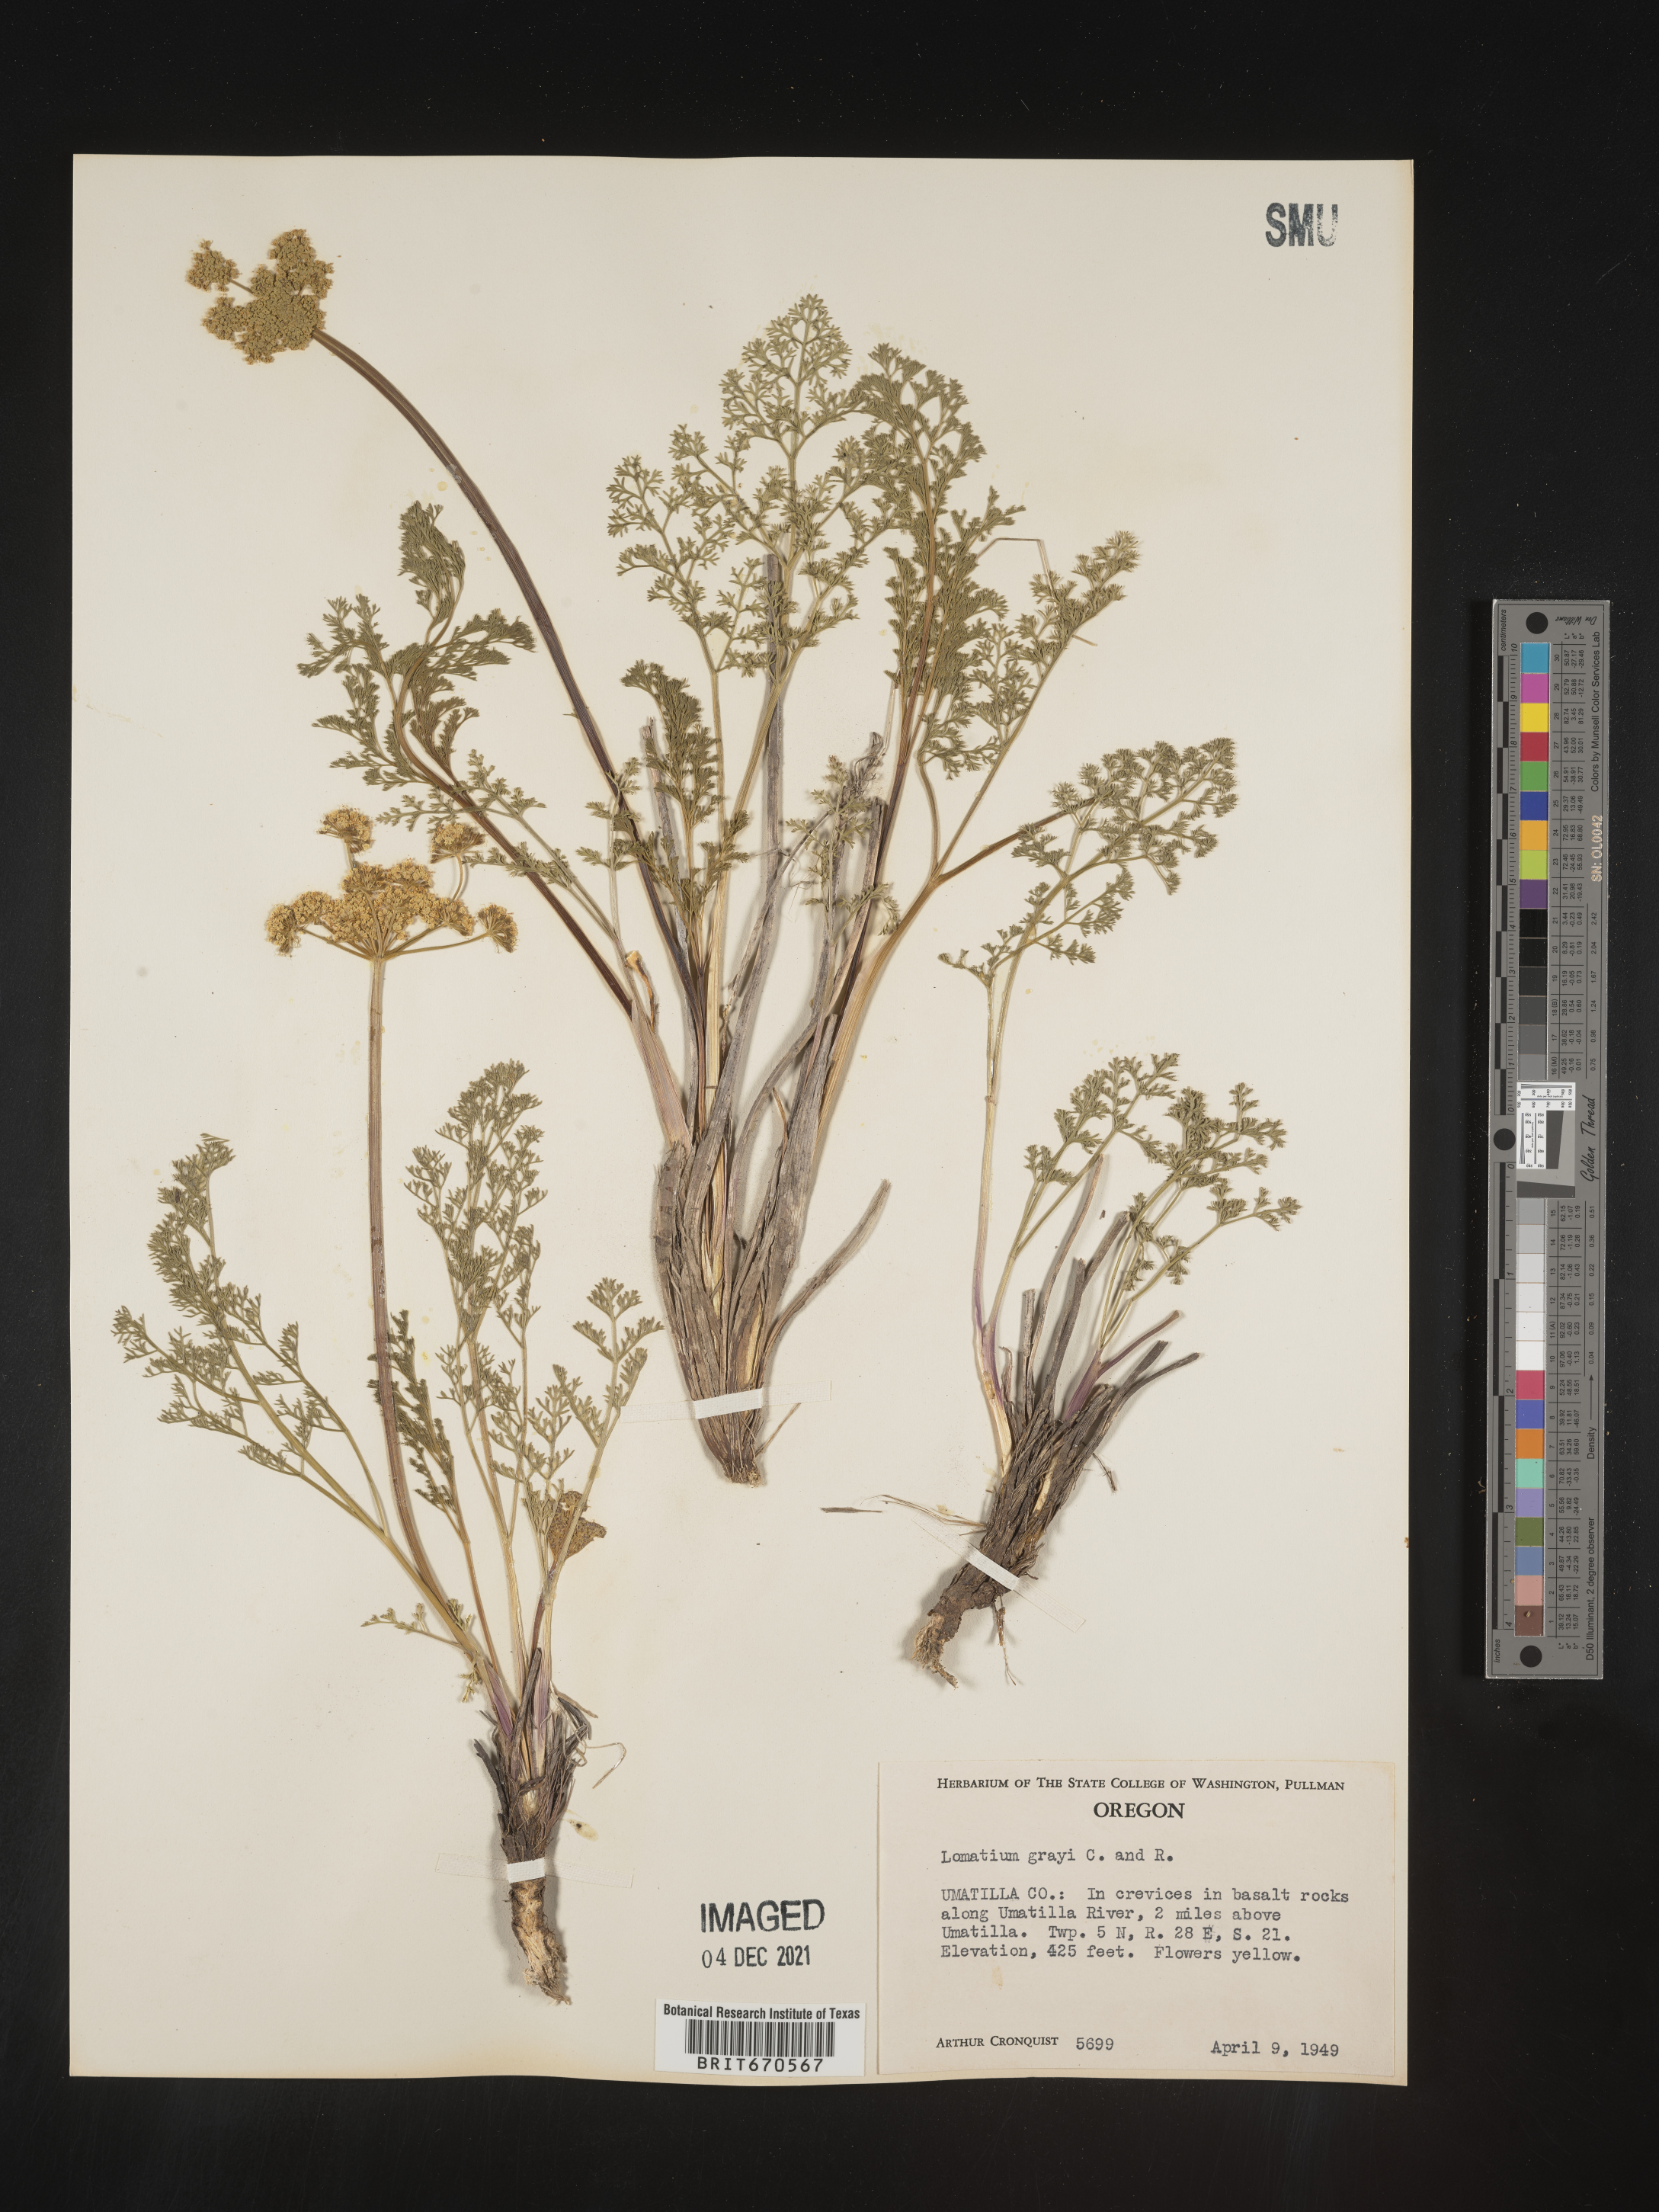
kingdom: Plantae
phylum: Tracheophyta
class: Magnoliopsida
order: Apiales
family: Apiaceae
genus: Lomatium
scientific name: Lomatium grayi
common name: Milfoil lomatium
